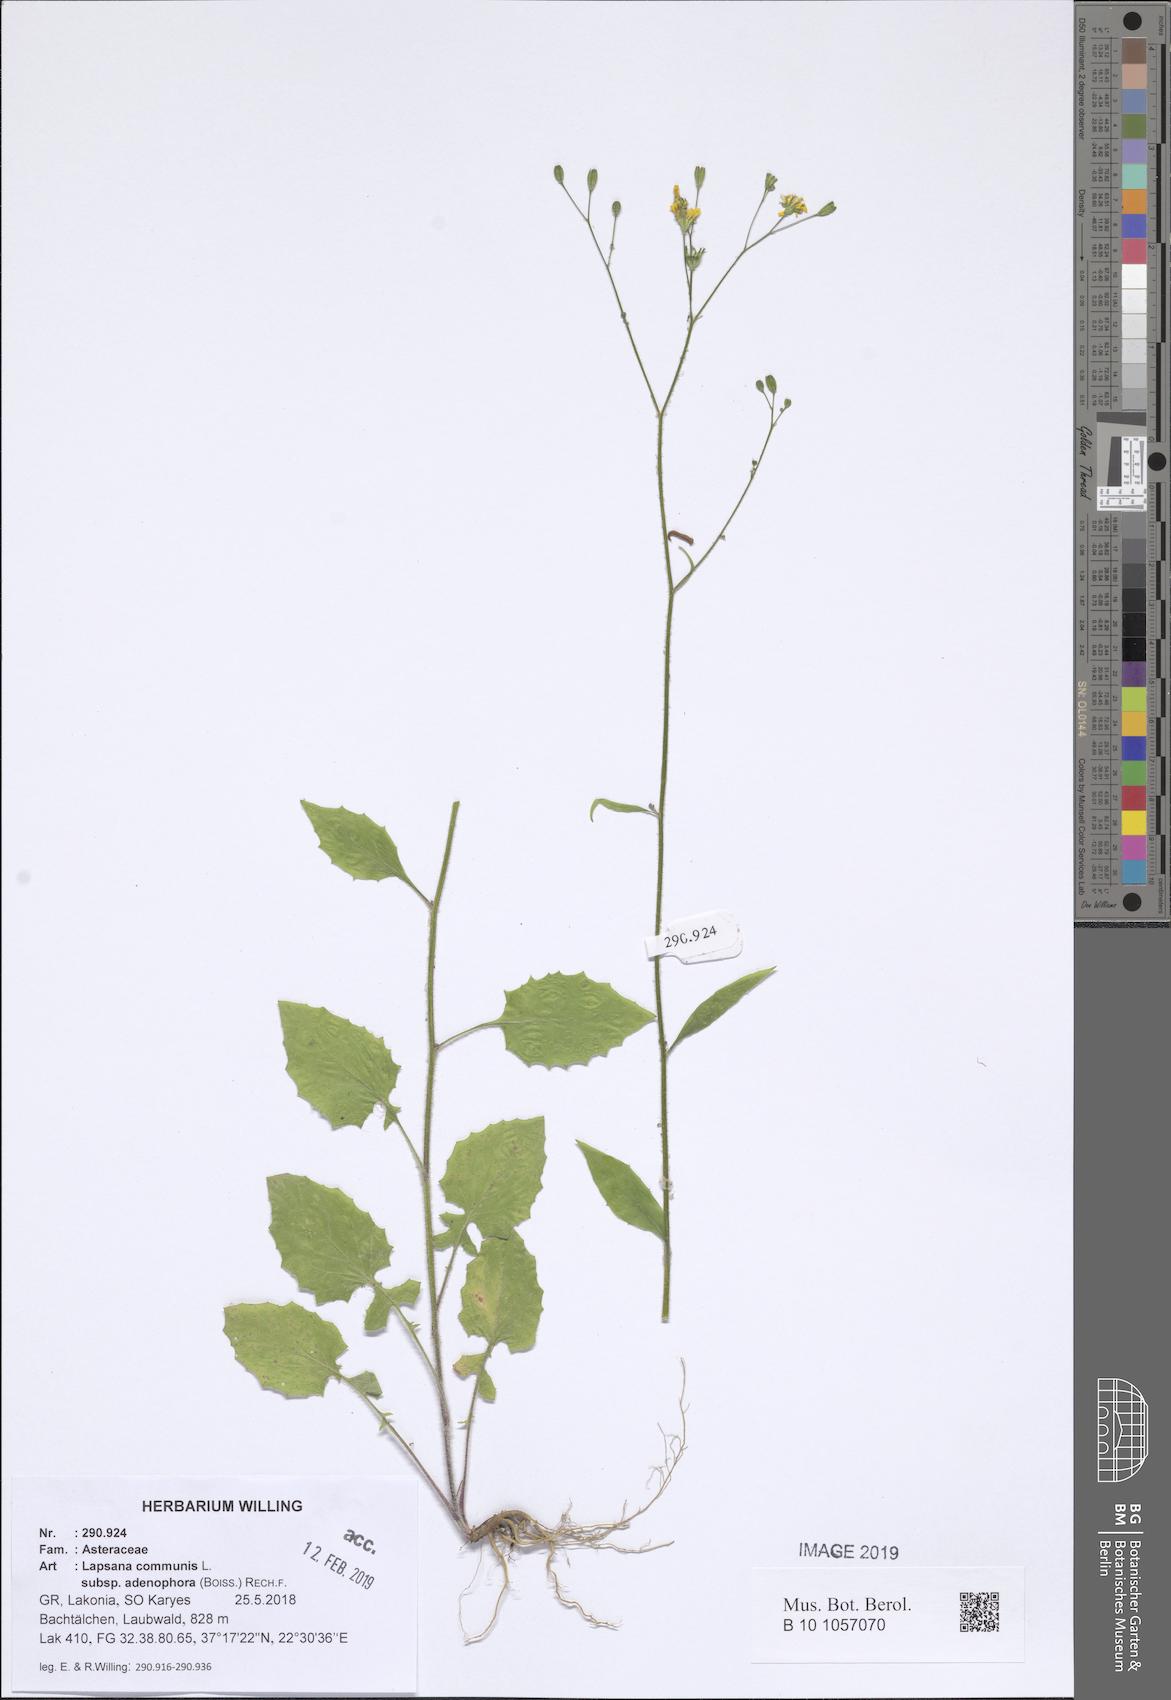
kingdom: Plantae
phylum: Tracheophyta
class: Magnoliopsida
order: Asterales
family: Asteraceae
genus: Lapsana
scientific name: Lapsana communis
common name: Nipplewort
